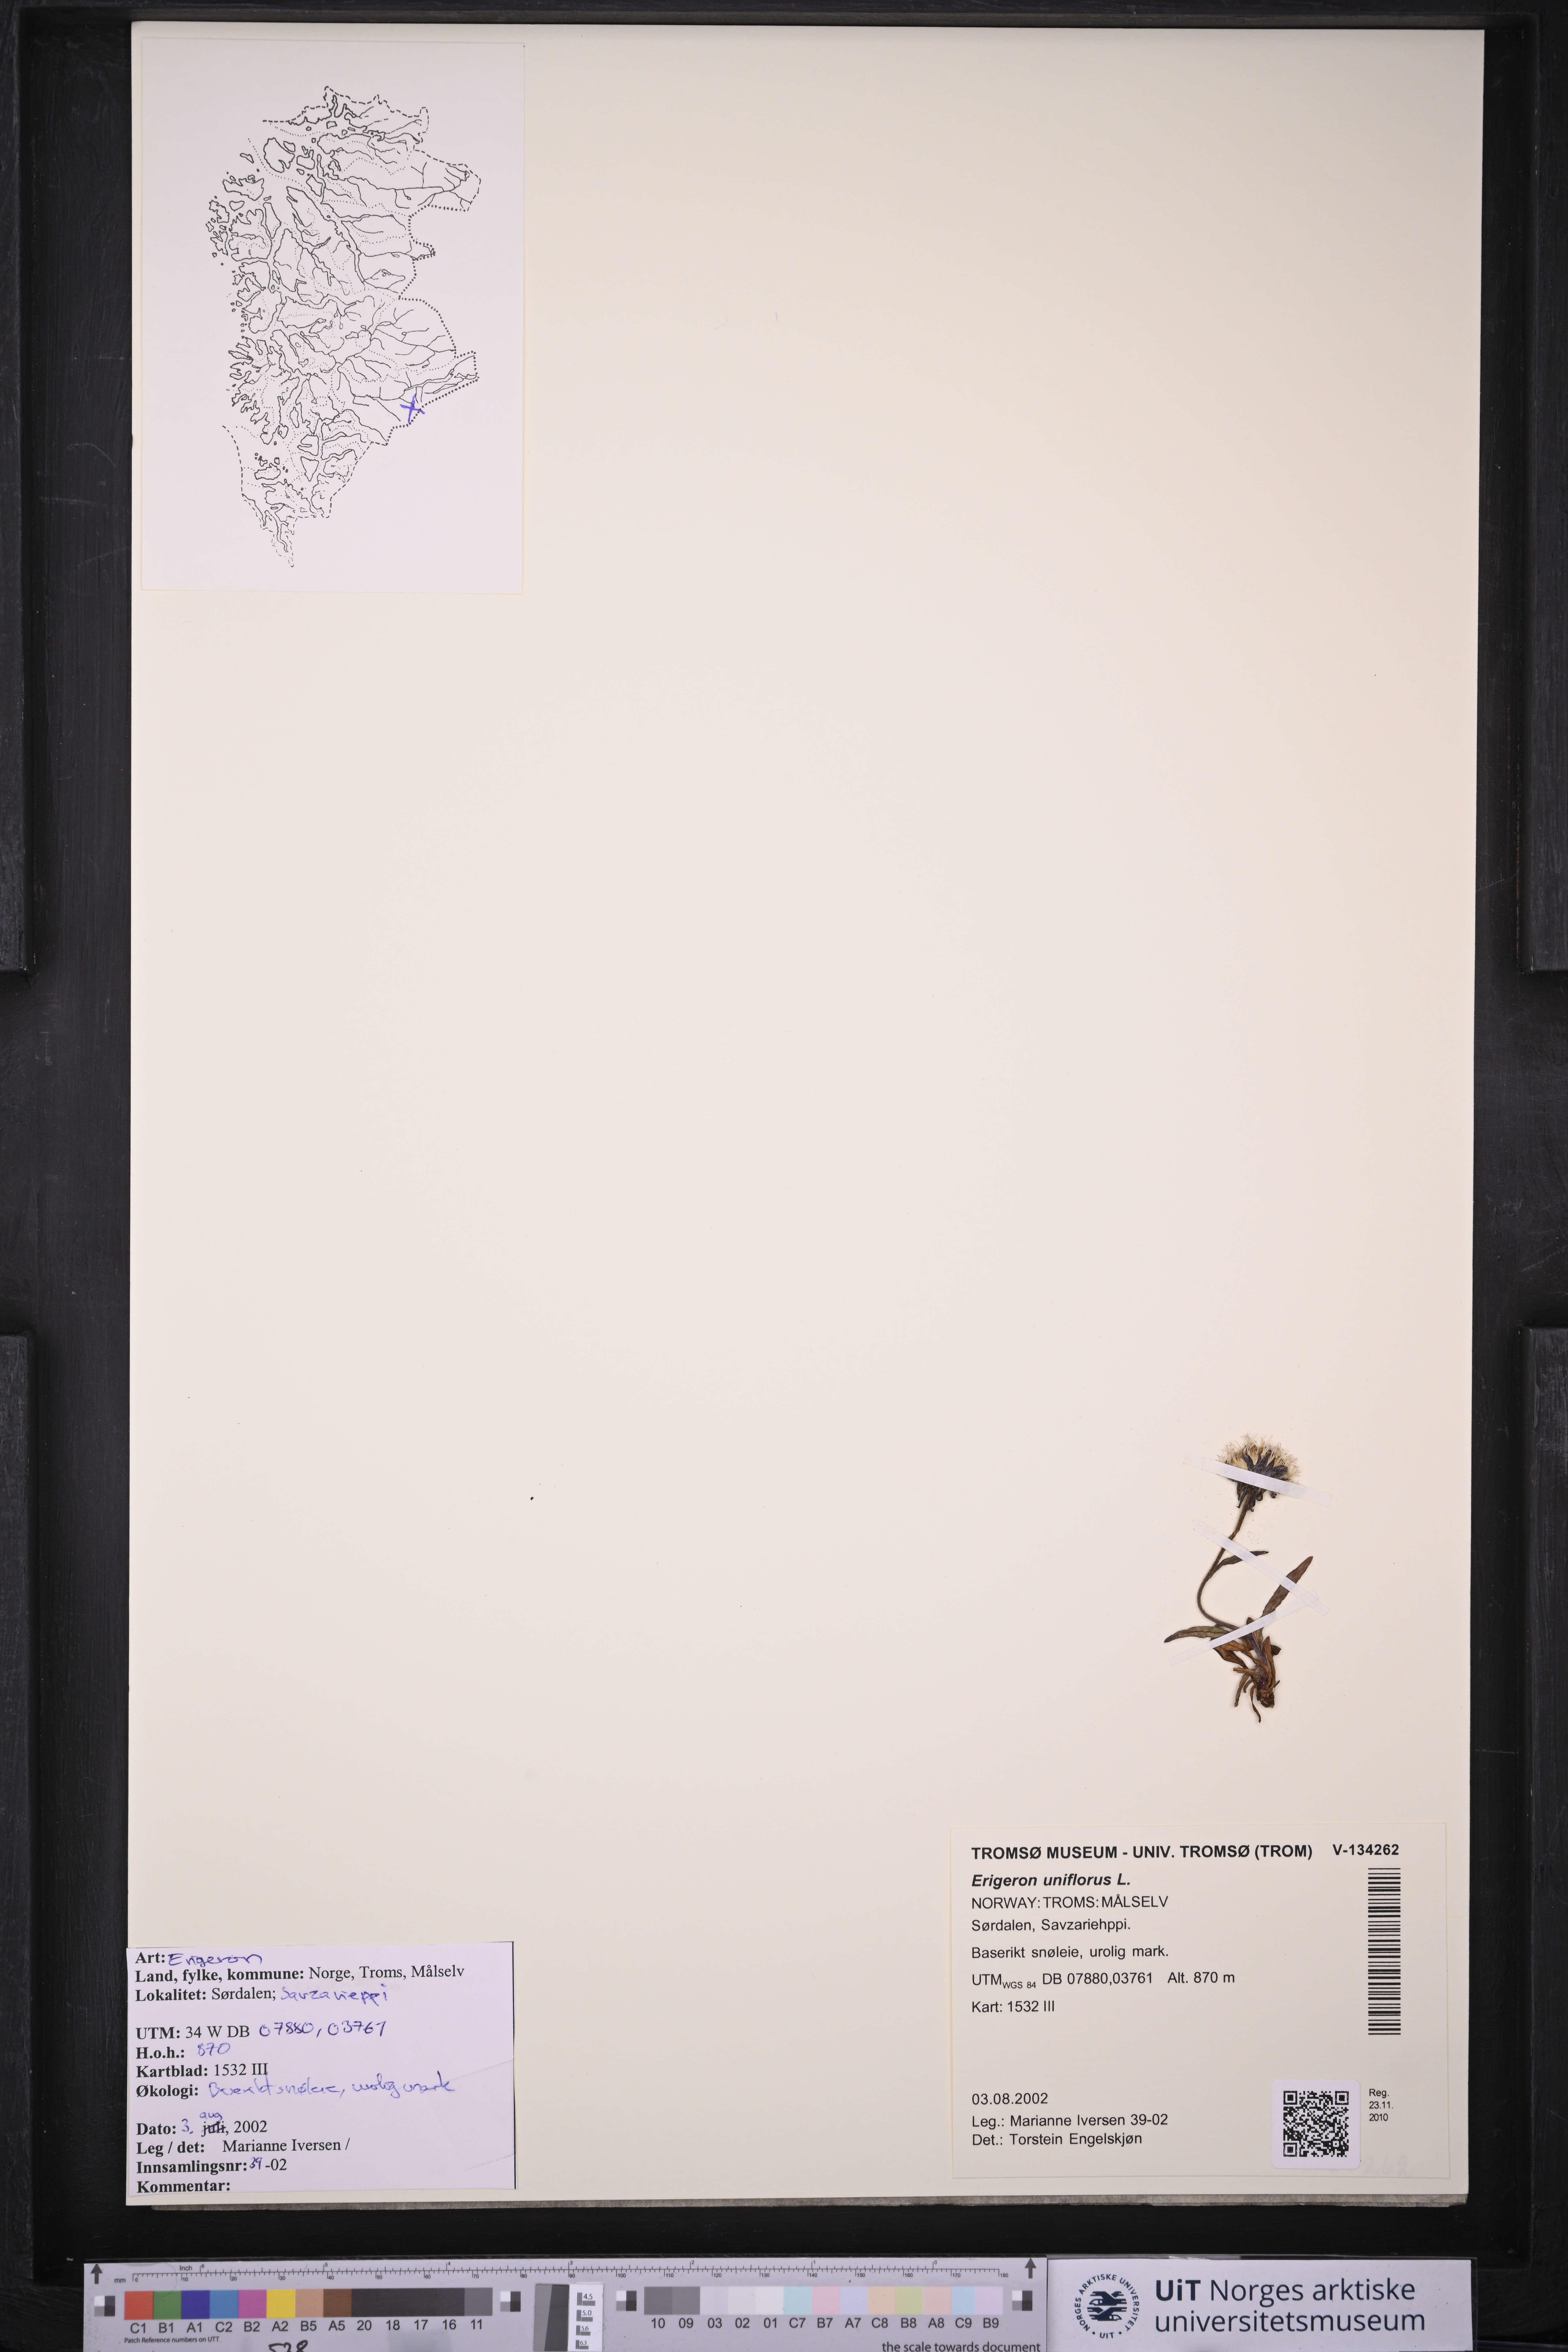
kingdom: Plantae
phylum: Tracheophyta
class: Magnoliopsida
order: Asterales
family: Asteraceae
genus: Erigeron
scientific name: Erigeron uniflorus
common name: Northern daisy
